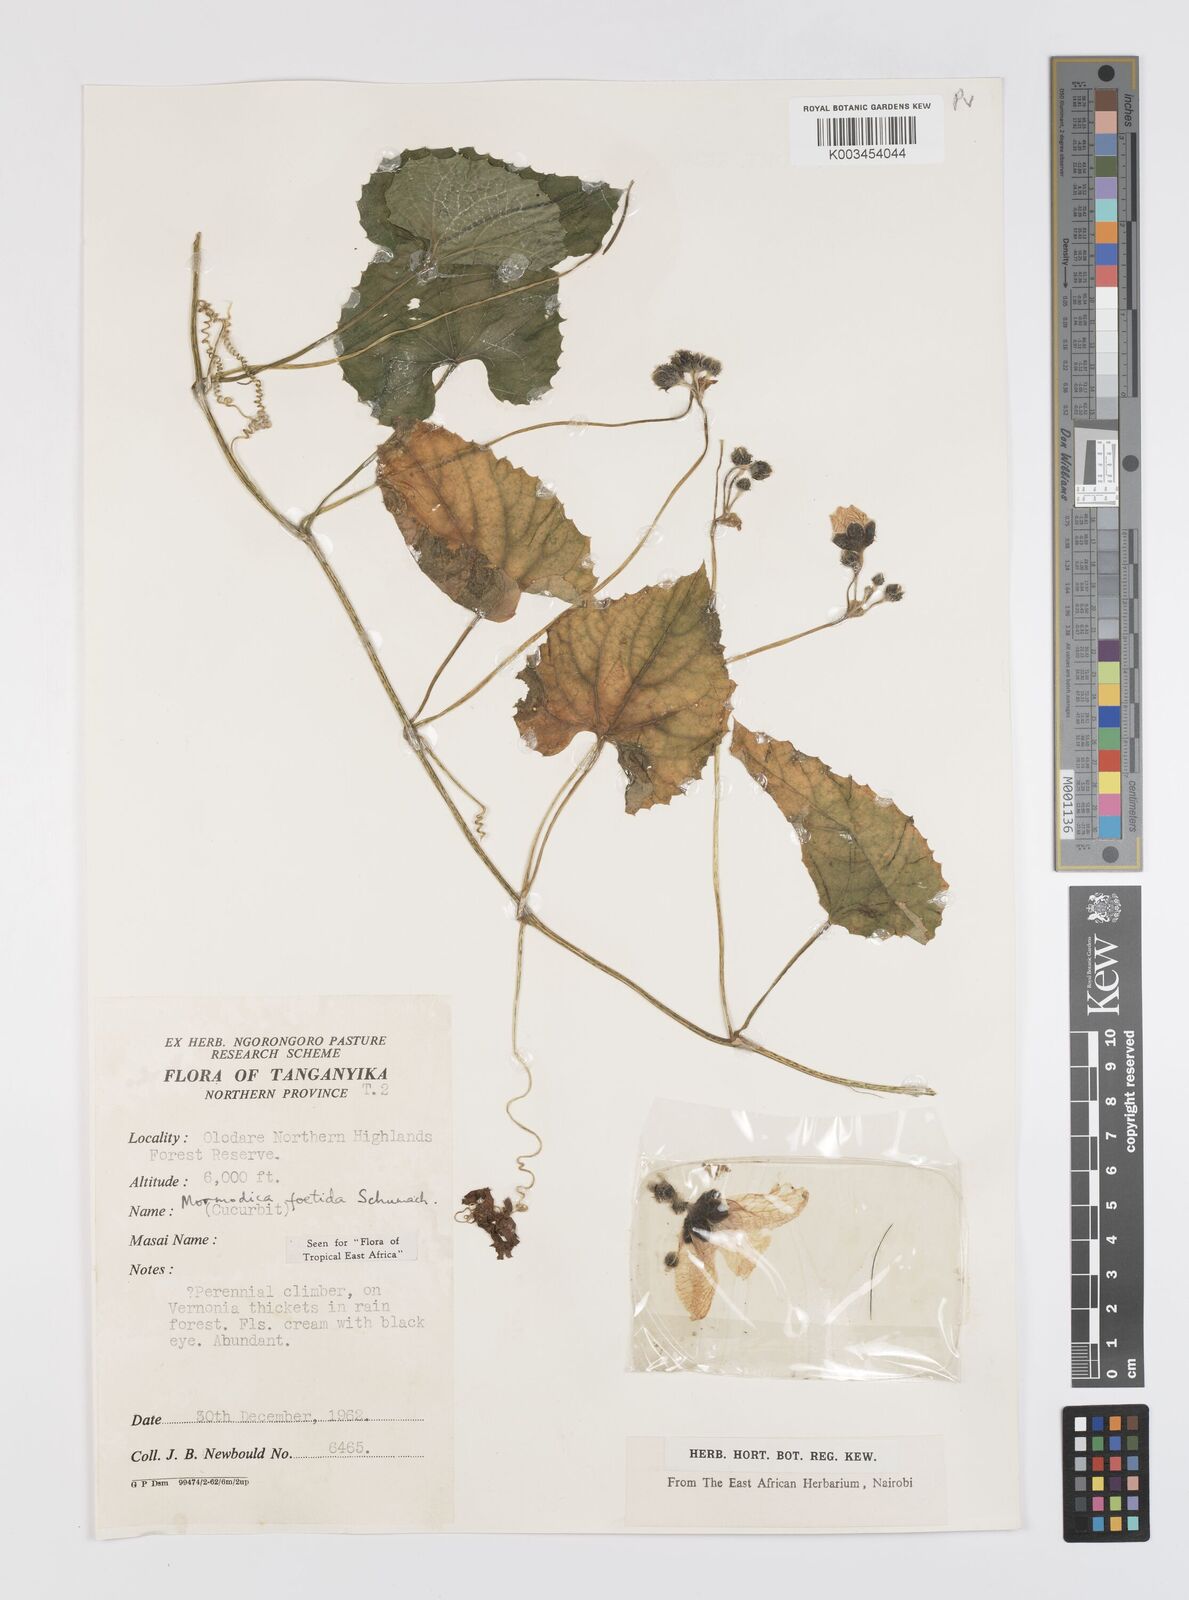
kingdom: Plantae
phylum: Tracheophyta
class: Magnoliopsida
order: Cucurbitales
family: Cucurbitaceae
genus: Momordica
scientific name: Momordica foetida
